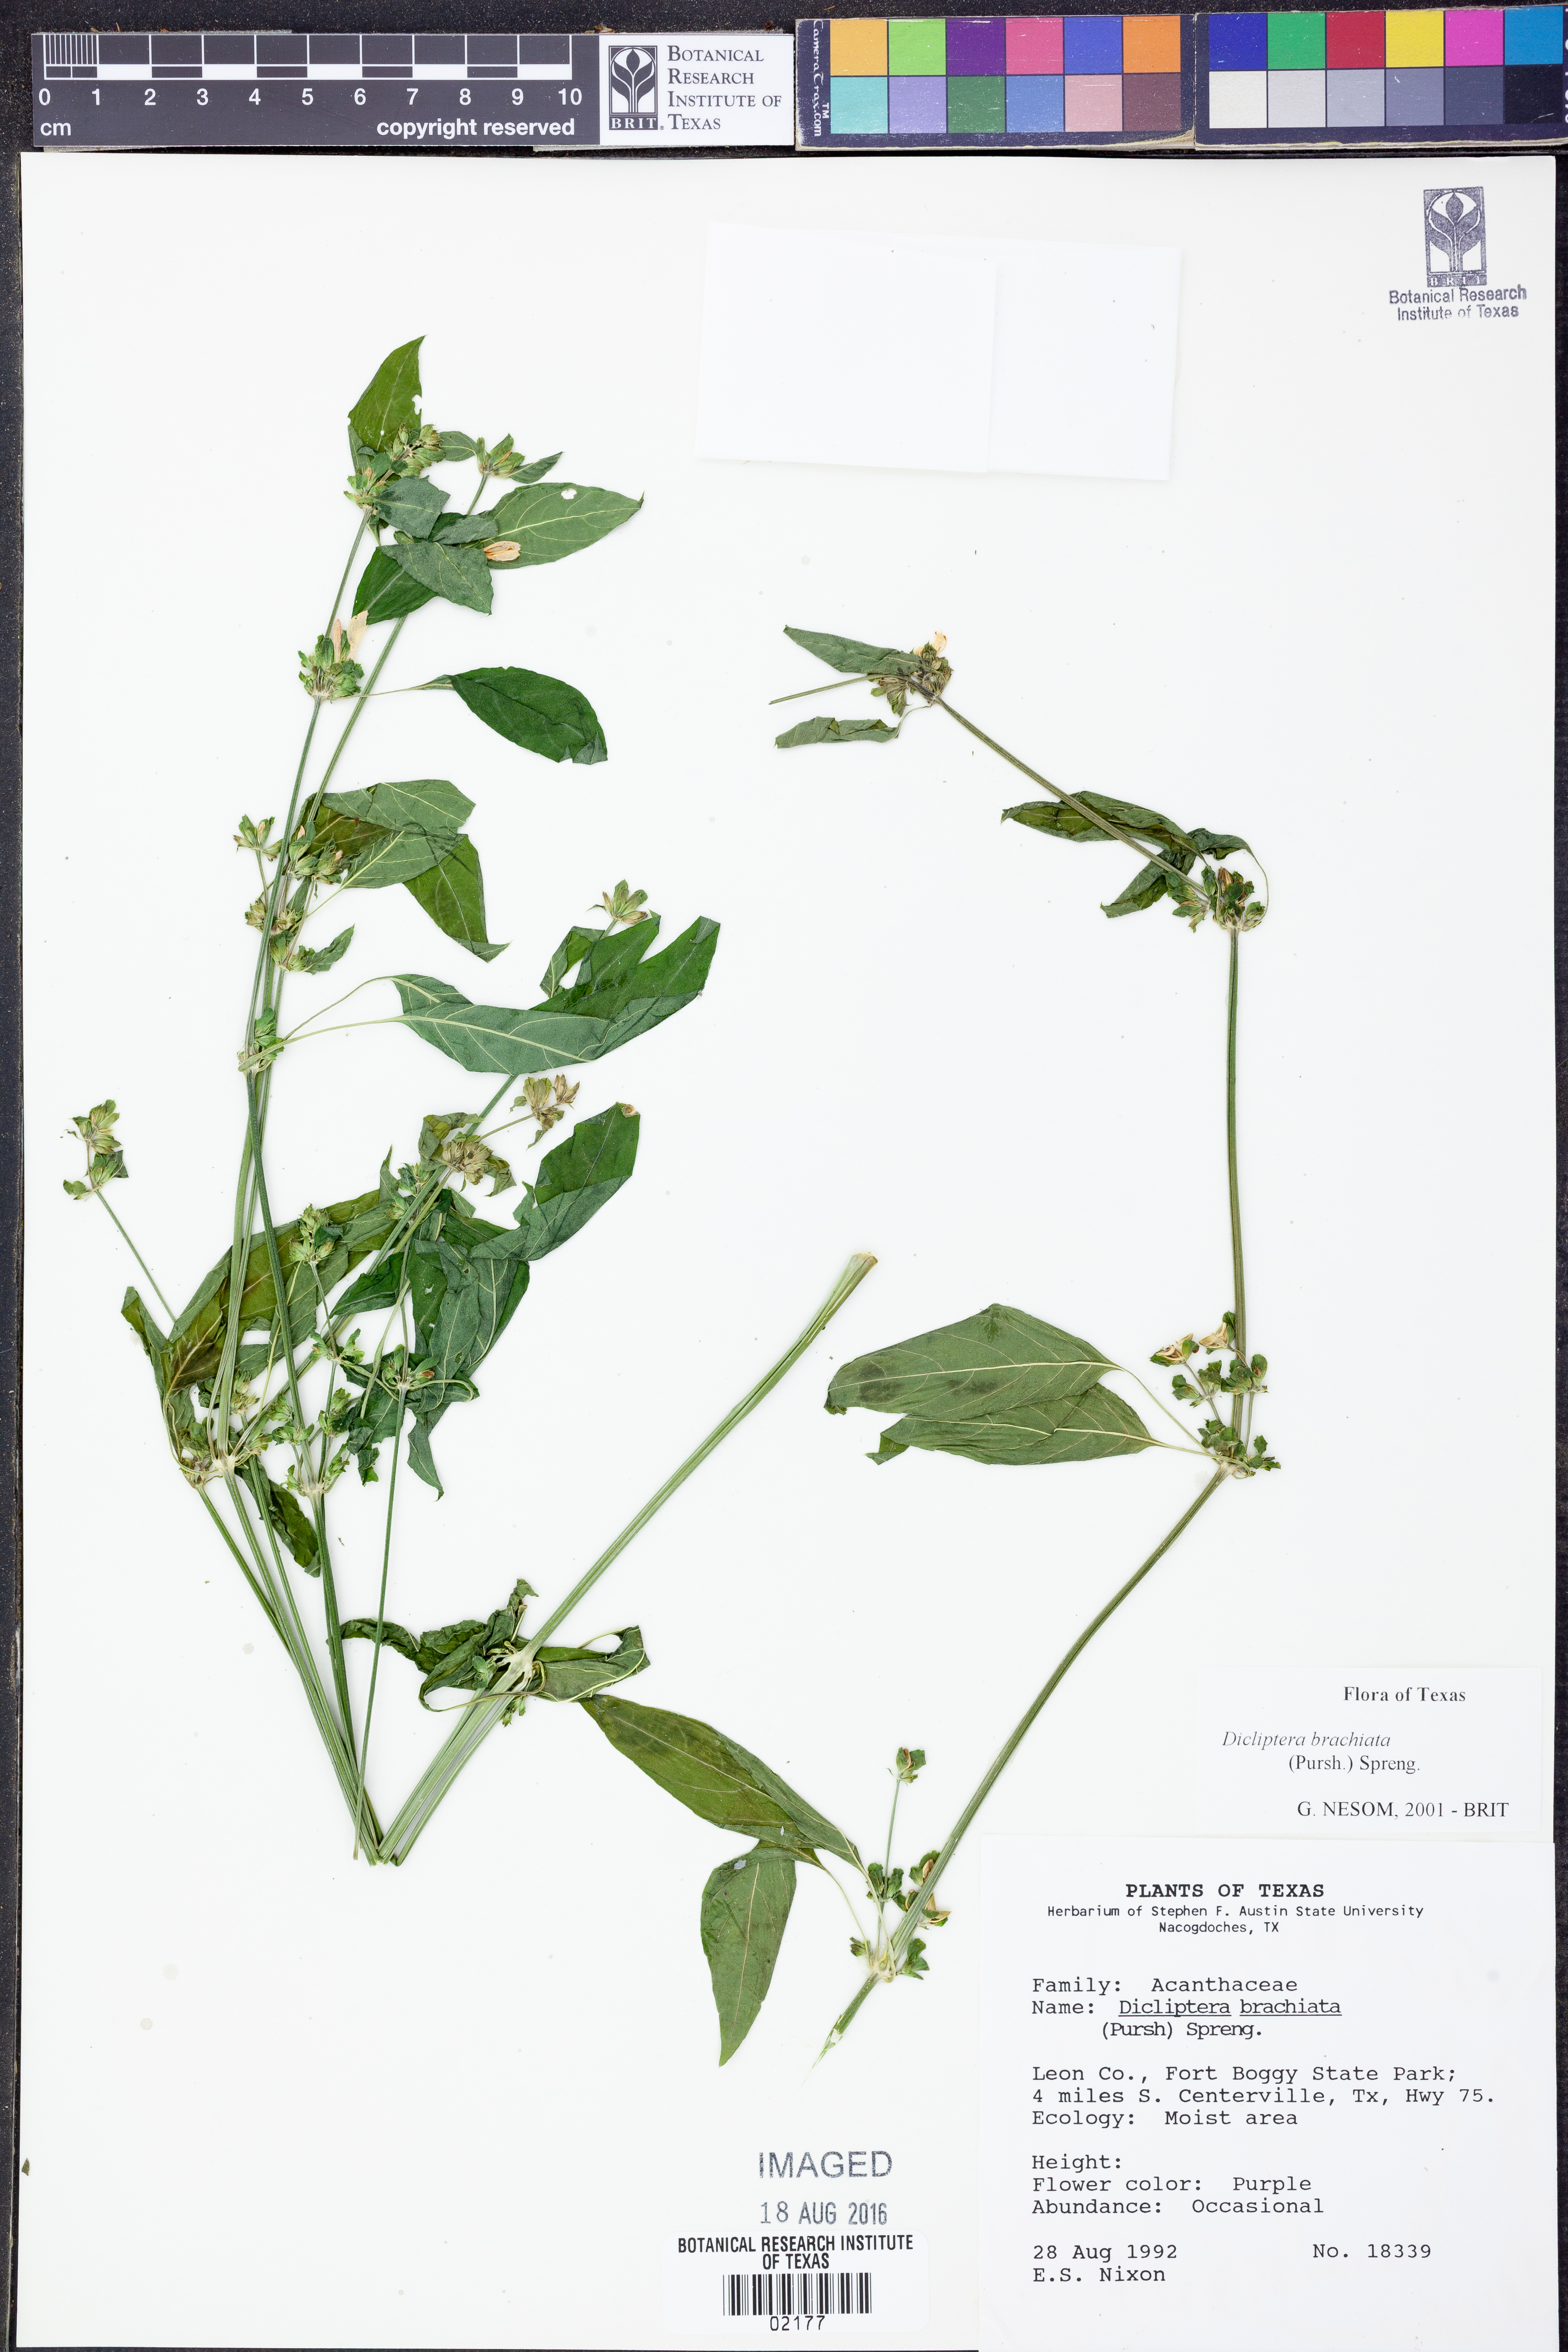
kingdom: Plantae
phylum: Tracheophyta
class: Magnoliopsida
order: Lamiales
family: Acanthaceae
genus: Dicliptera
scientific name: Dicliptera brachiata
